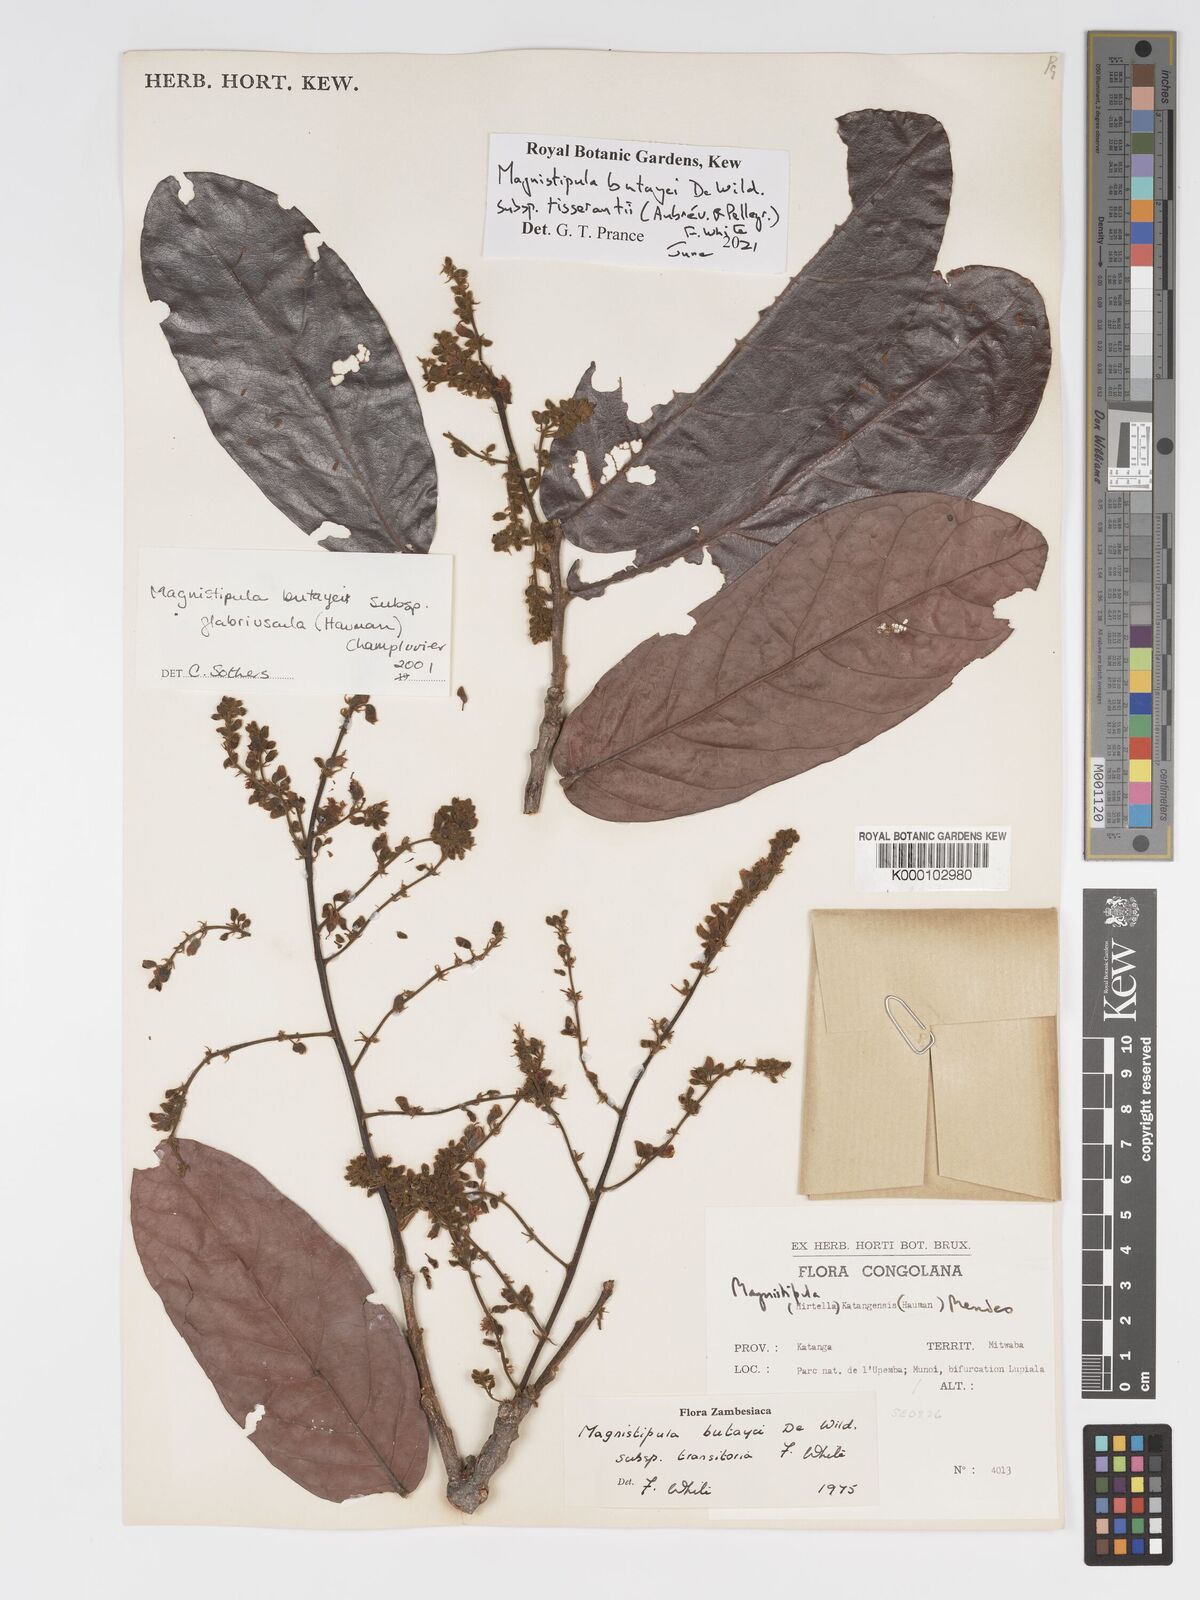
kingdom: Plantae
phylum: Tracheophyta
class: Magnoliopsida
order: Malpighiales
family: Chrysobalanaceae
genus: Magnistipula
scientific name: Magnistipula butayei
